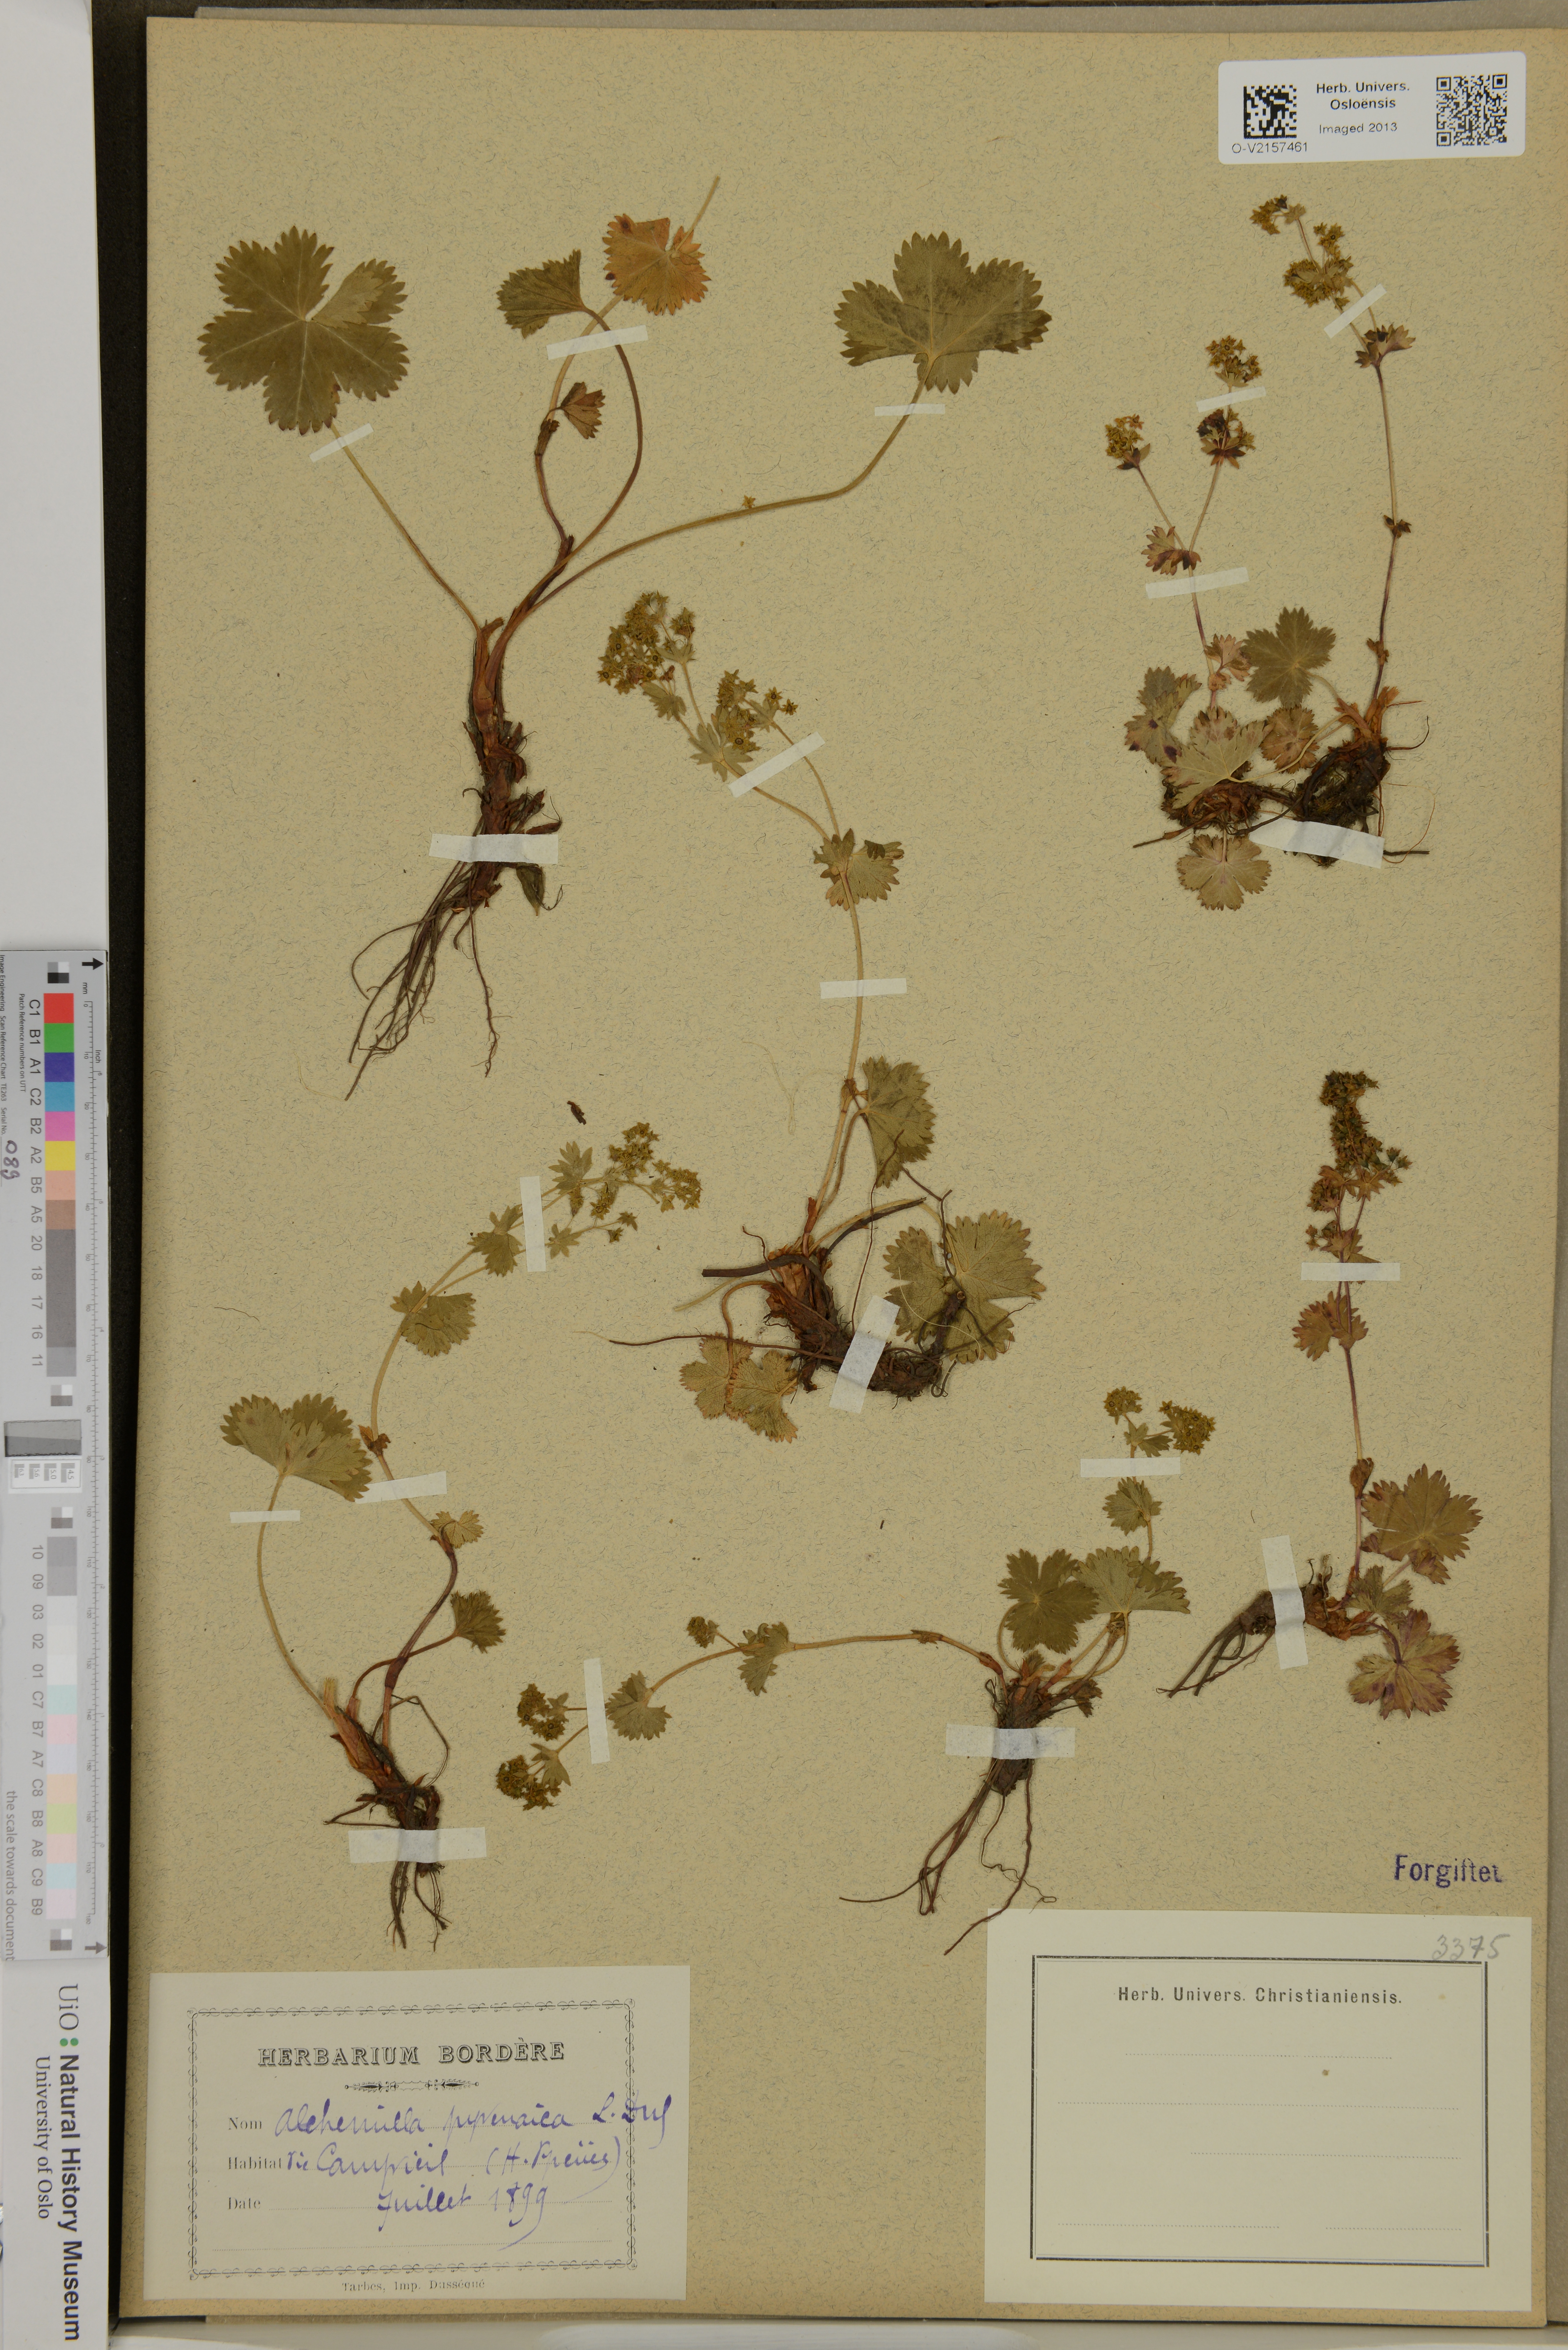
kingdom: Plantae
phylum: Tracheophyta
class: Magnoliopsida
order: Rosales
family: Rosaceae
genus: Alchemilla
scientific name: Alchemilla
